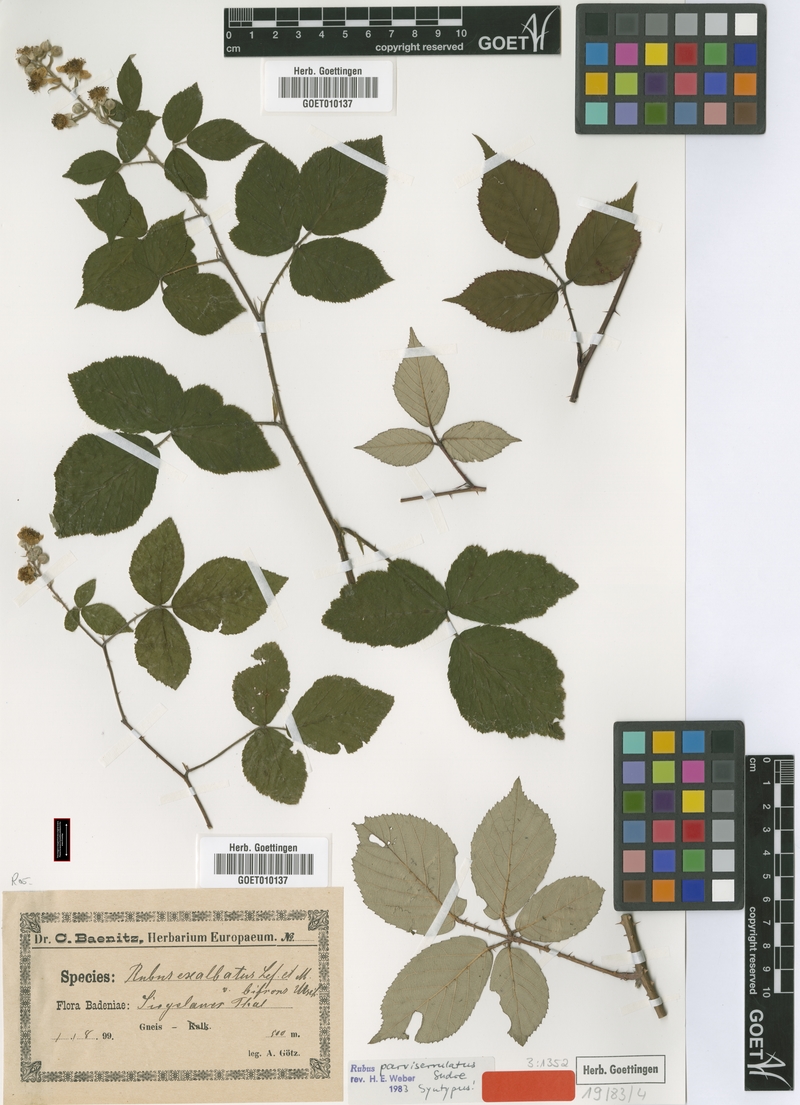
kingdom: Plantae
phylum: Tracheophyta
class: Magnoliopsida
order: Rosales
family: Rosaceae
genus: Rubus
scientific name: Rubus fuscus
